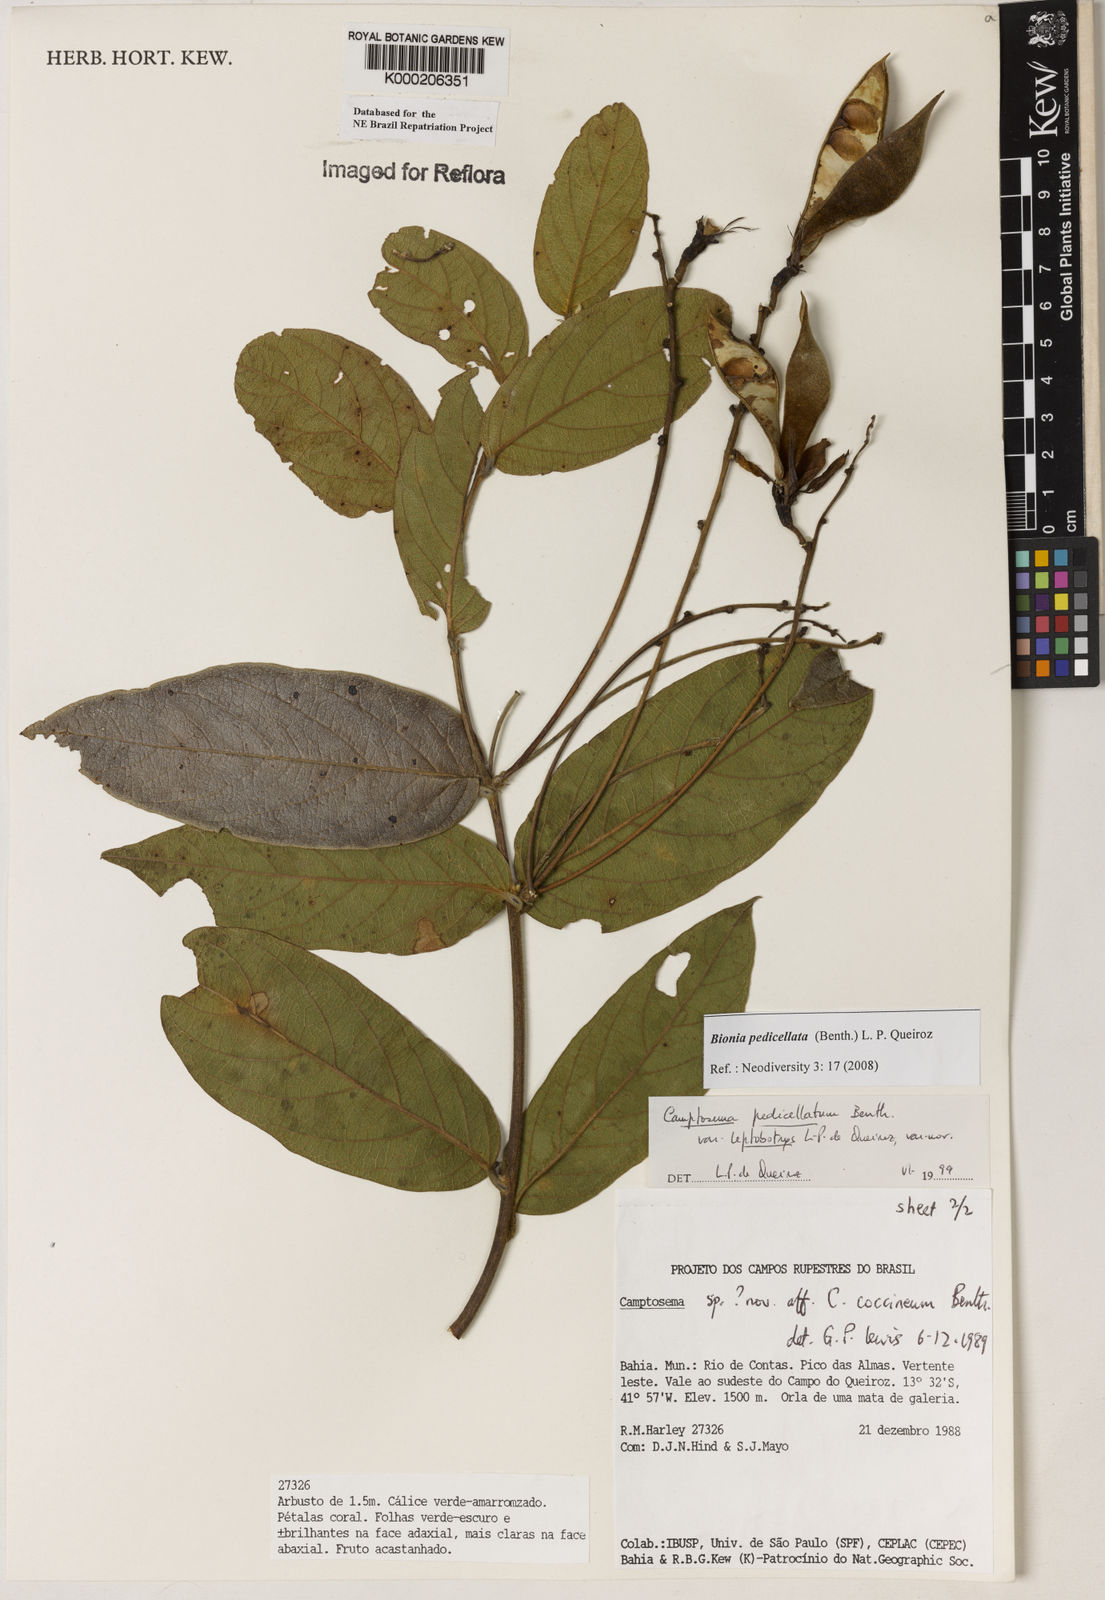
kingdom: Plantae
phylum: Tracheophyta
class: Magnoliopsida
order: Fabales
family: Fabaceae
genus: Camptosema
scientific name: Camptosema pedicellatum
